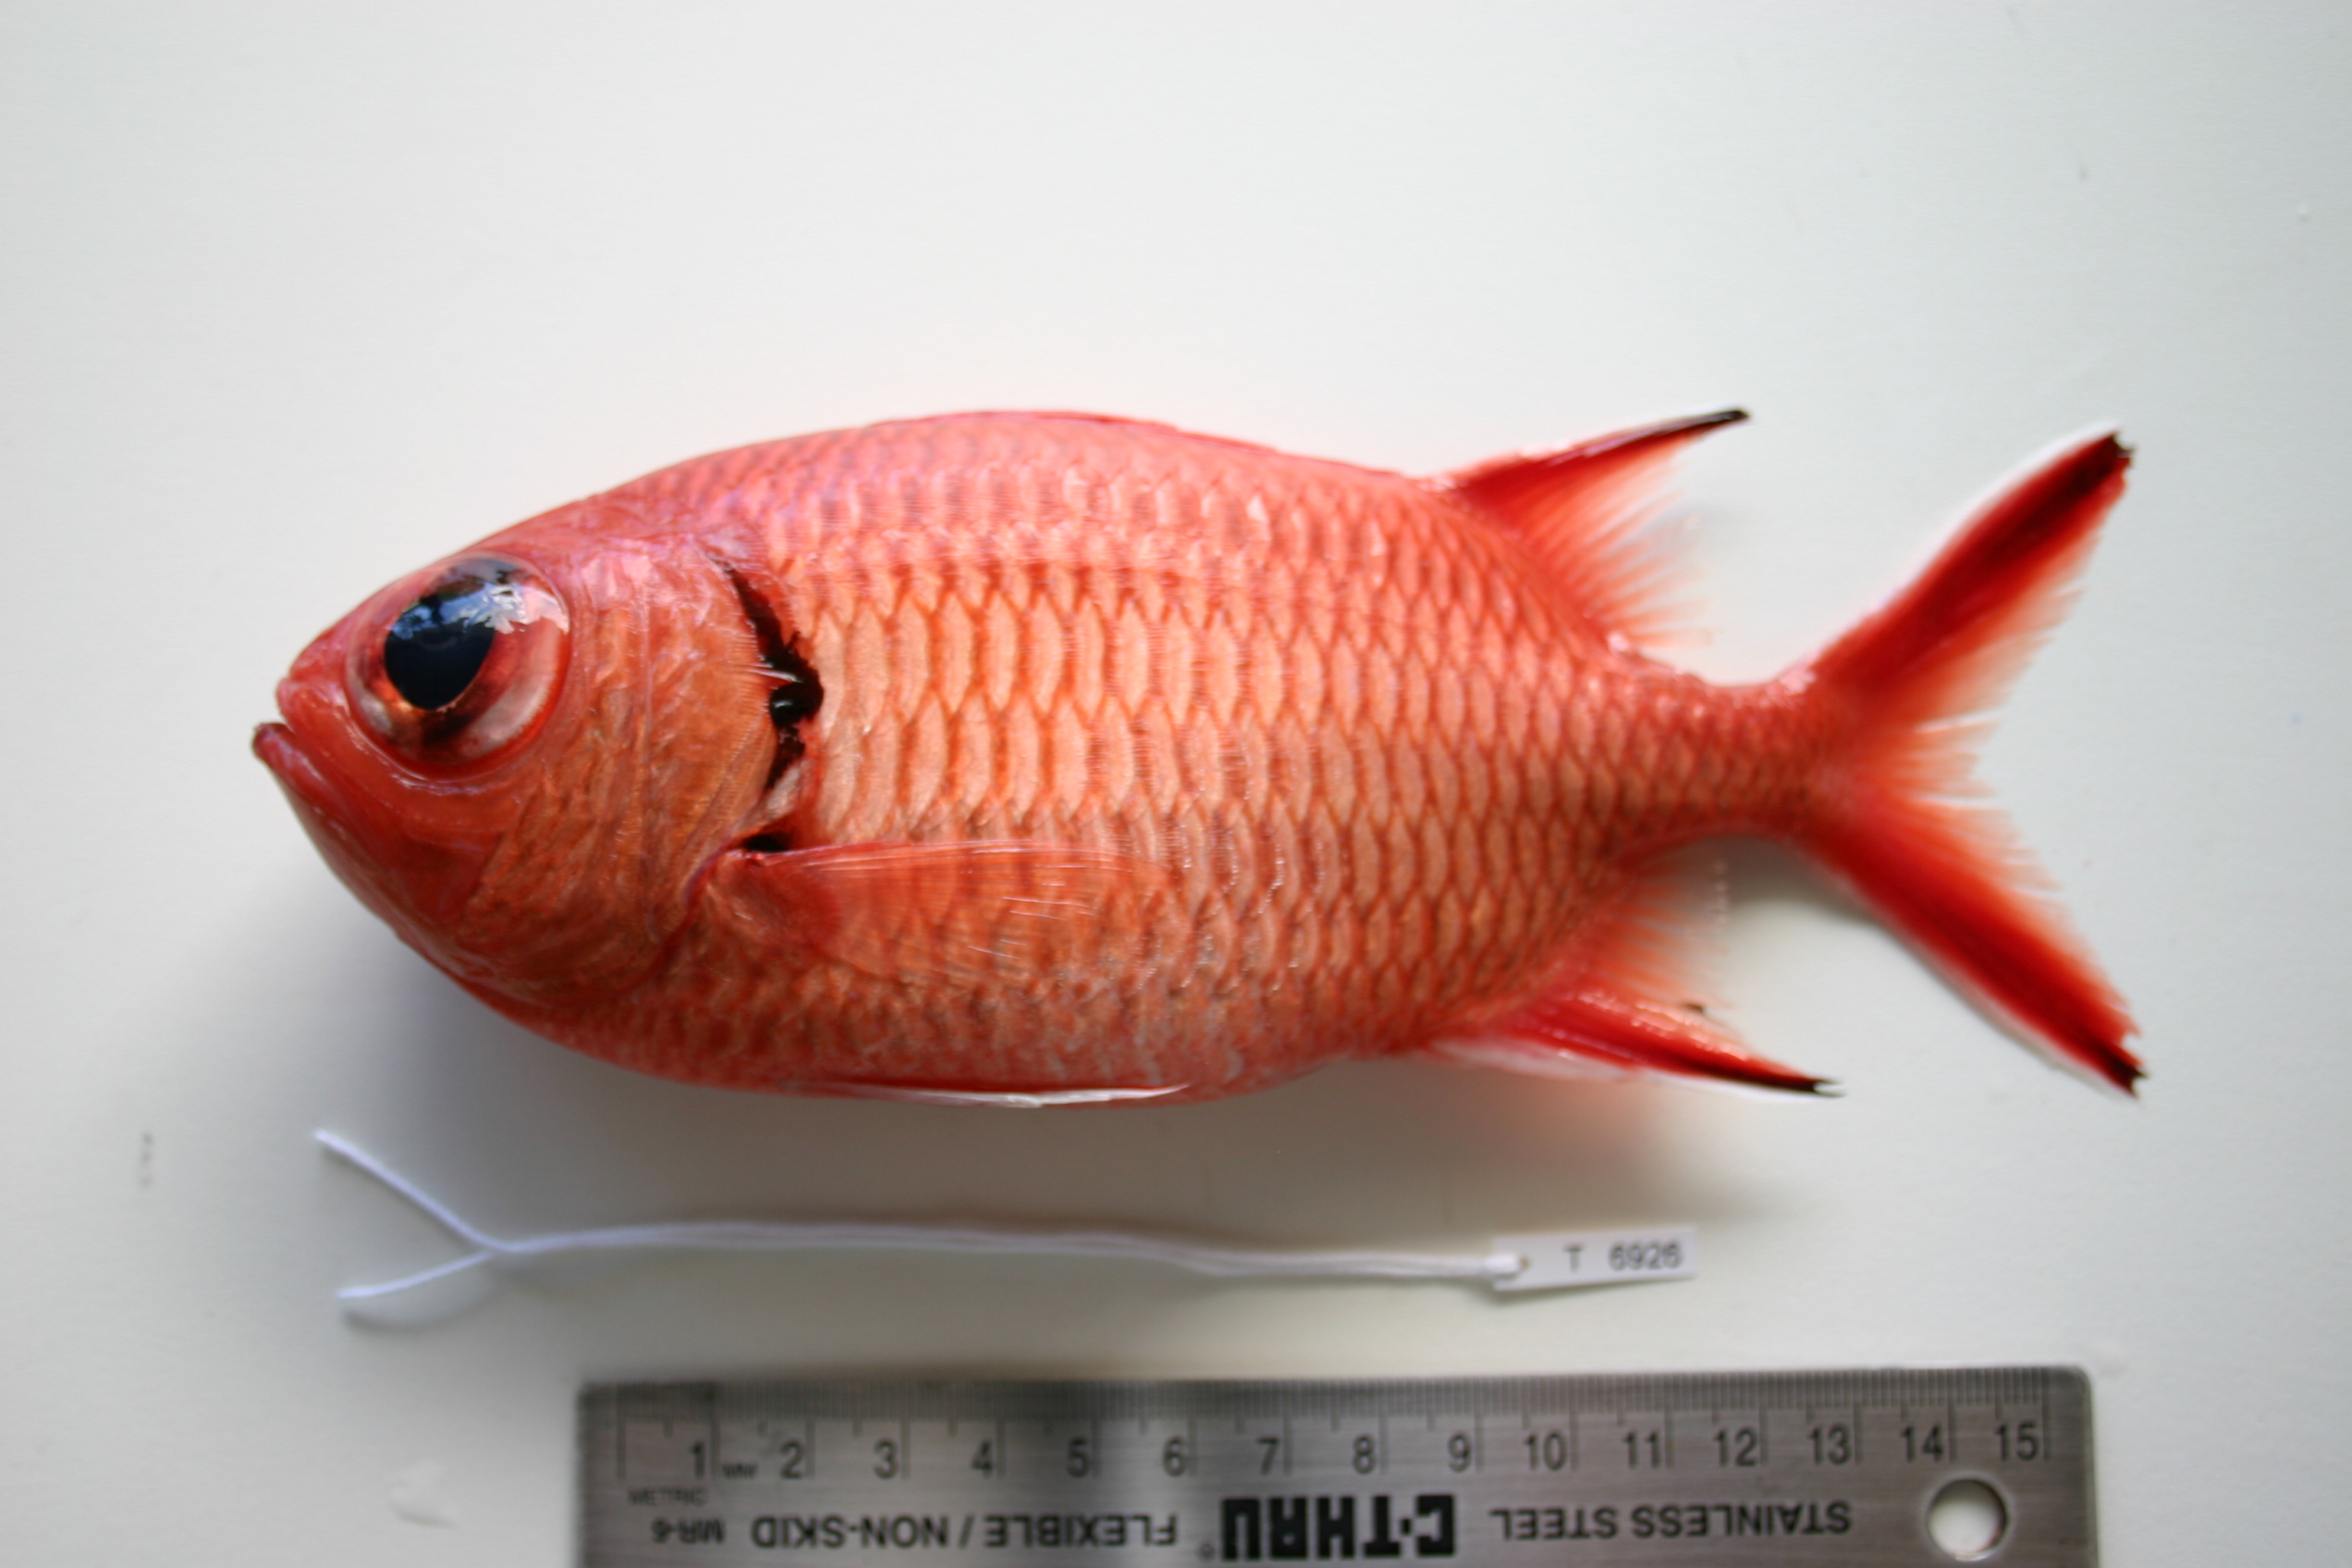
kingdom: Animalia
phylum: Chordata
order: Beryciformes
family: Holocentridae
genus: Myripristis
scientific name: Myripristis berndti
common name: Bigscale soldierfish
